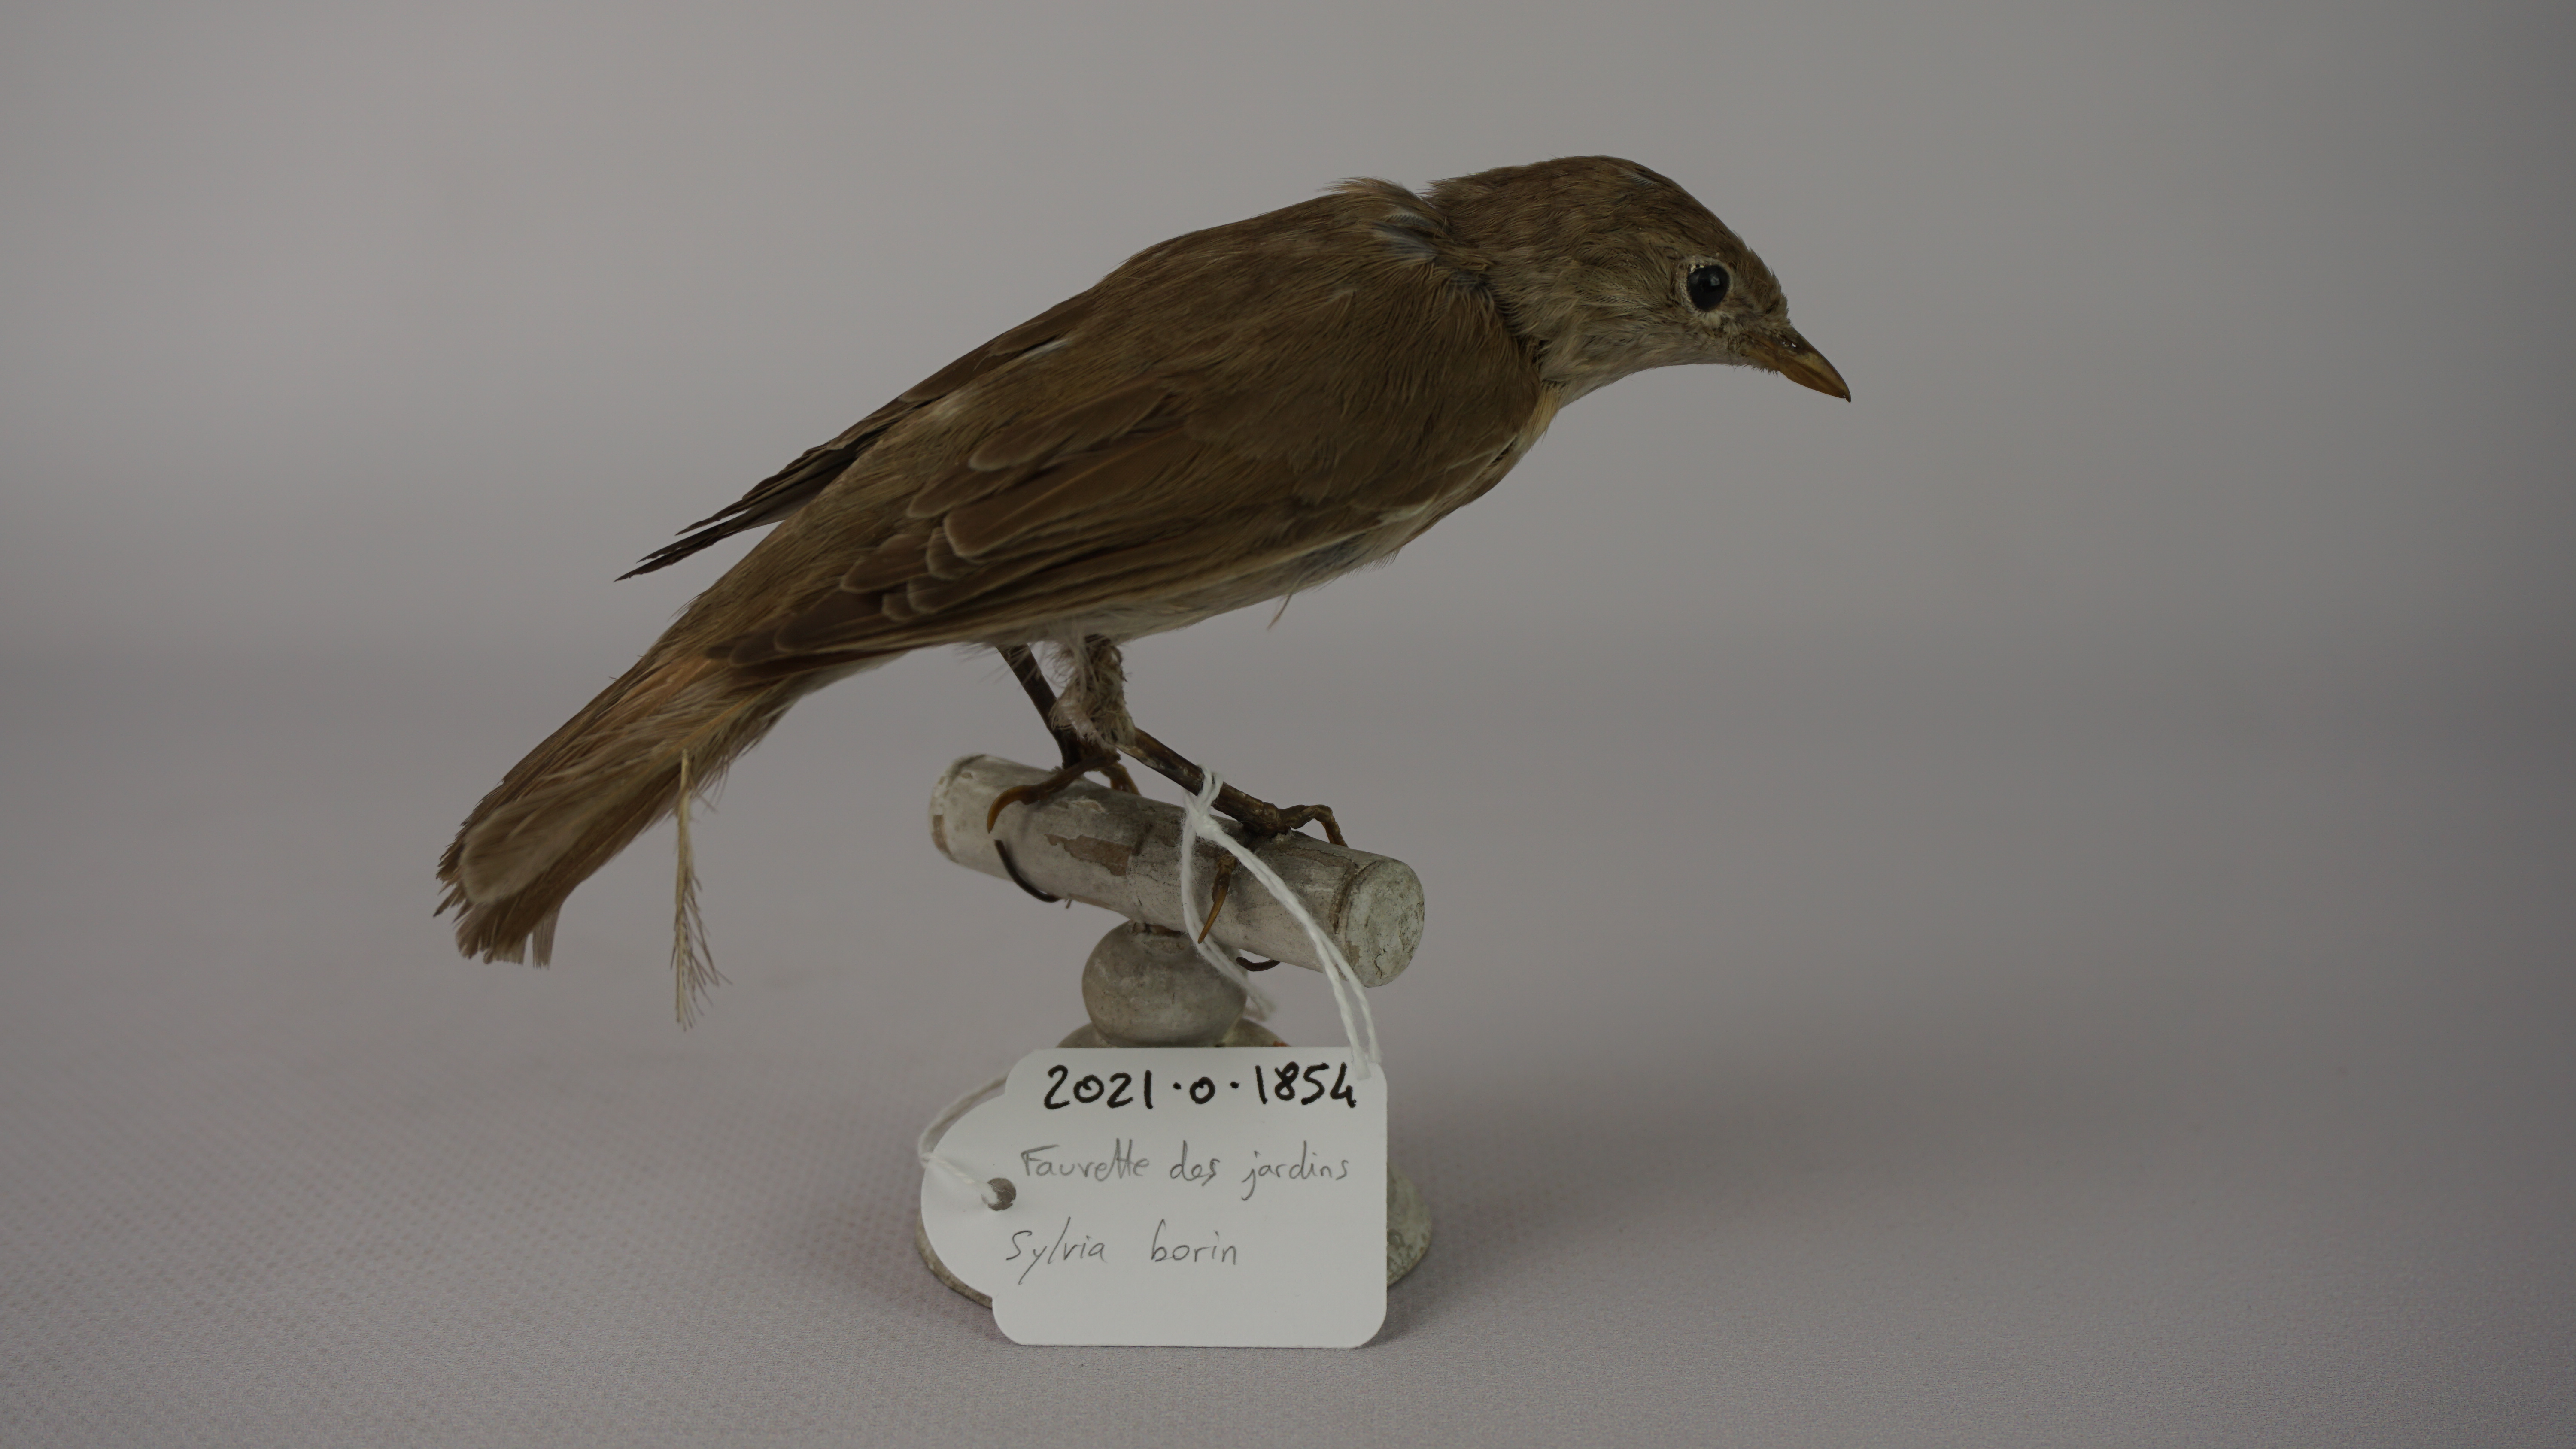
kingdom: Animalia
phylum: Chordata
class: Aves
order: Passeriformes
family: Sylviidae
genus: Sylvia
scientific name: Sylvia borin
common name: Garden warbler
